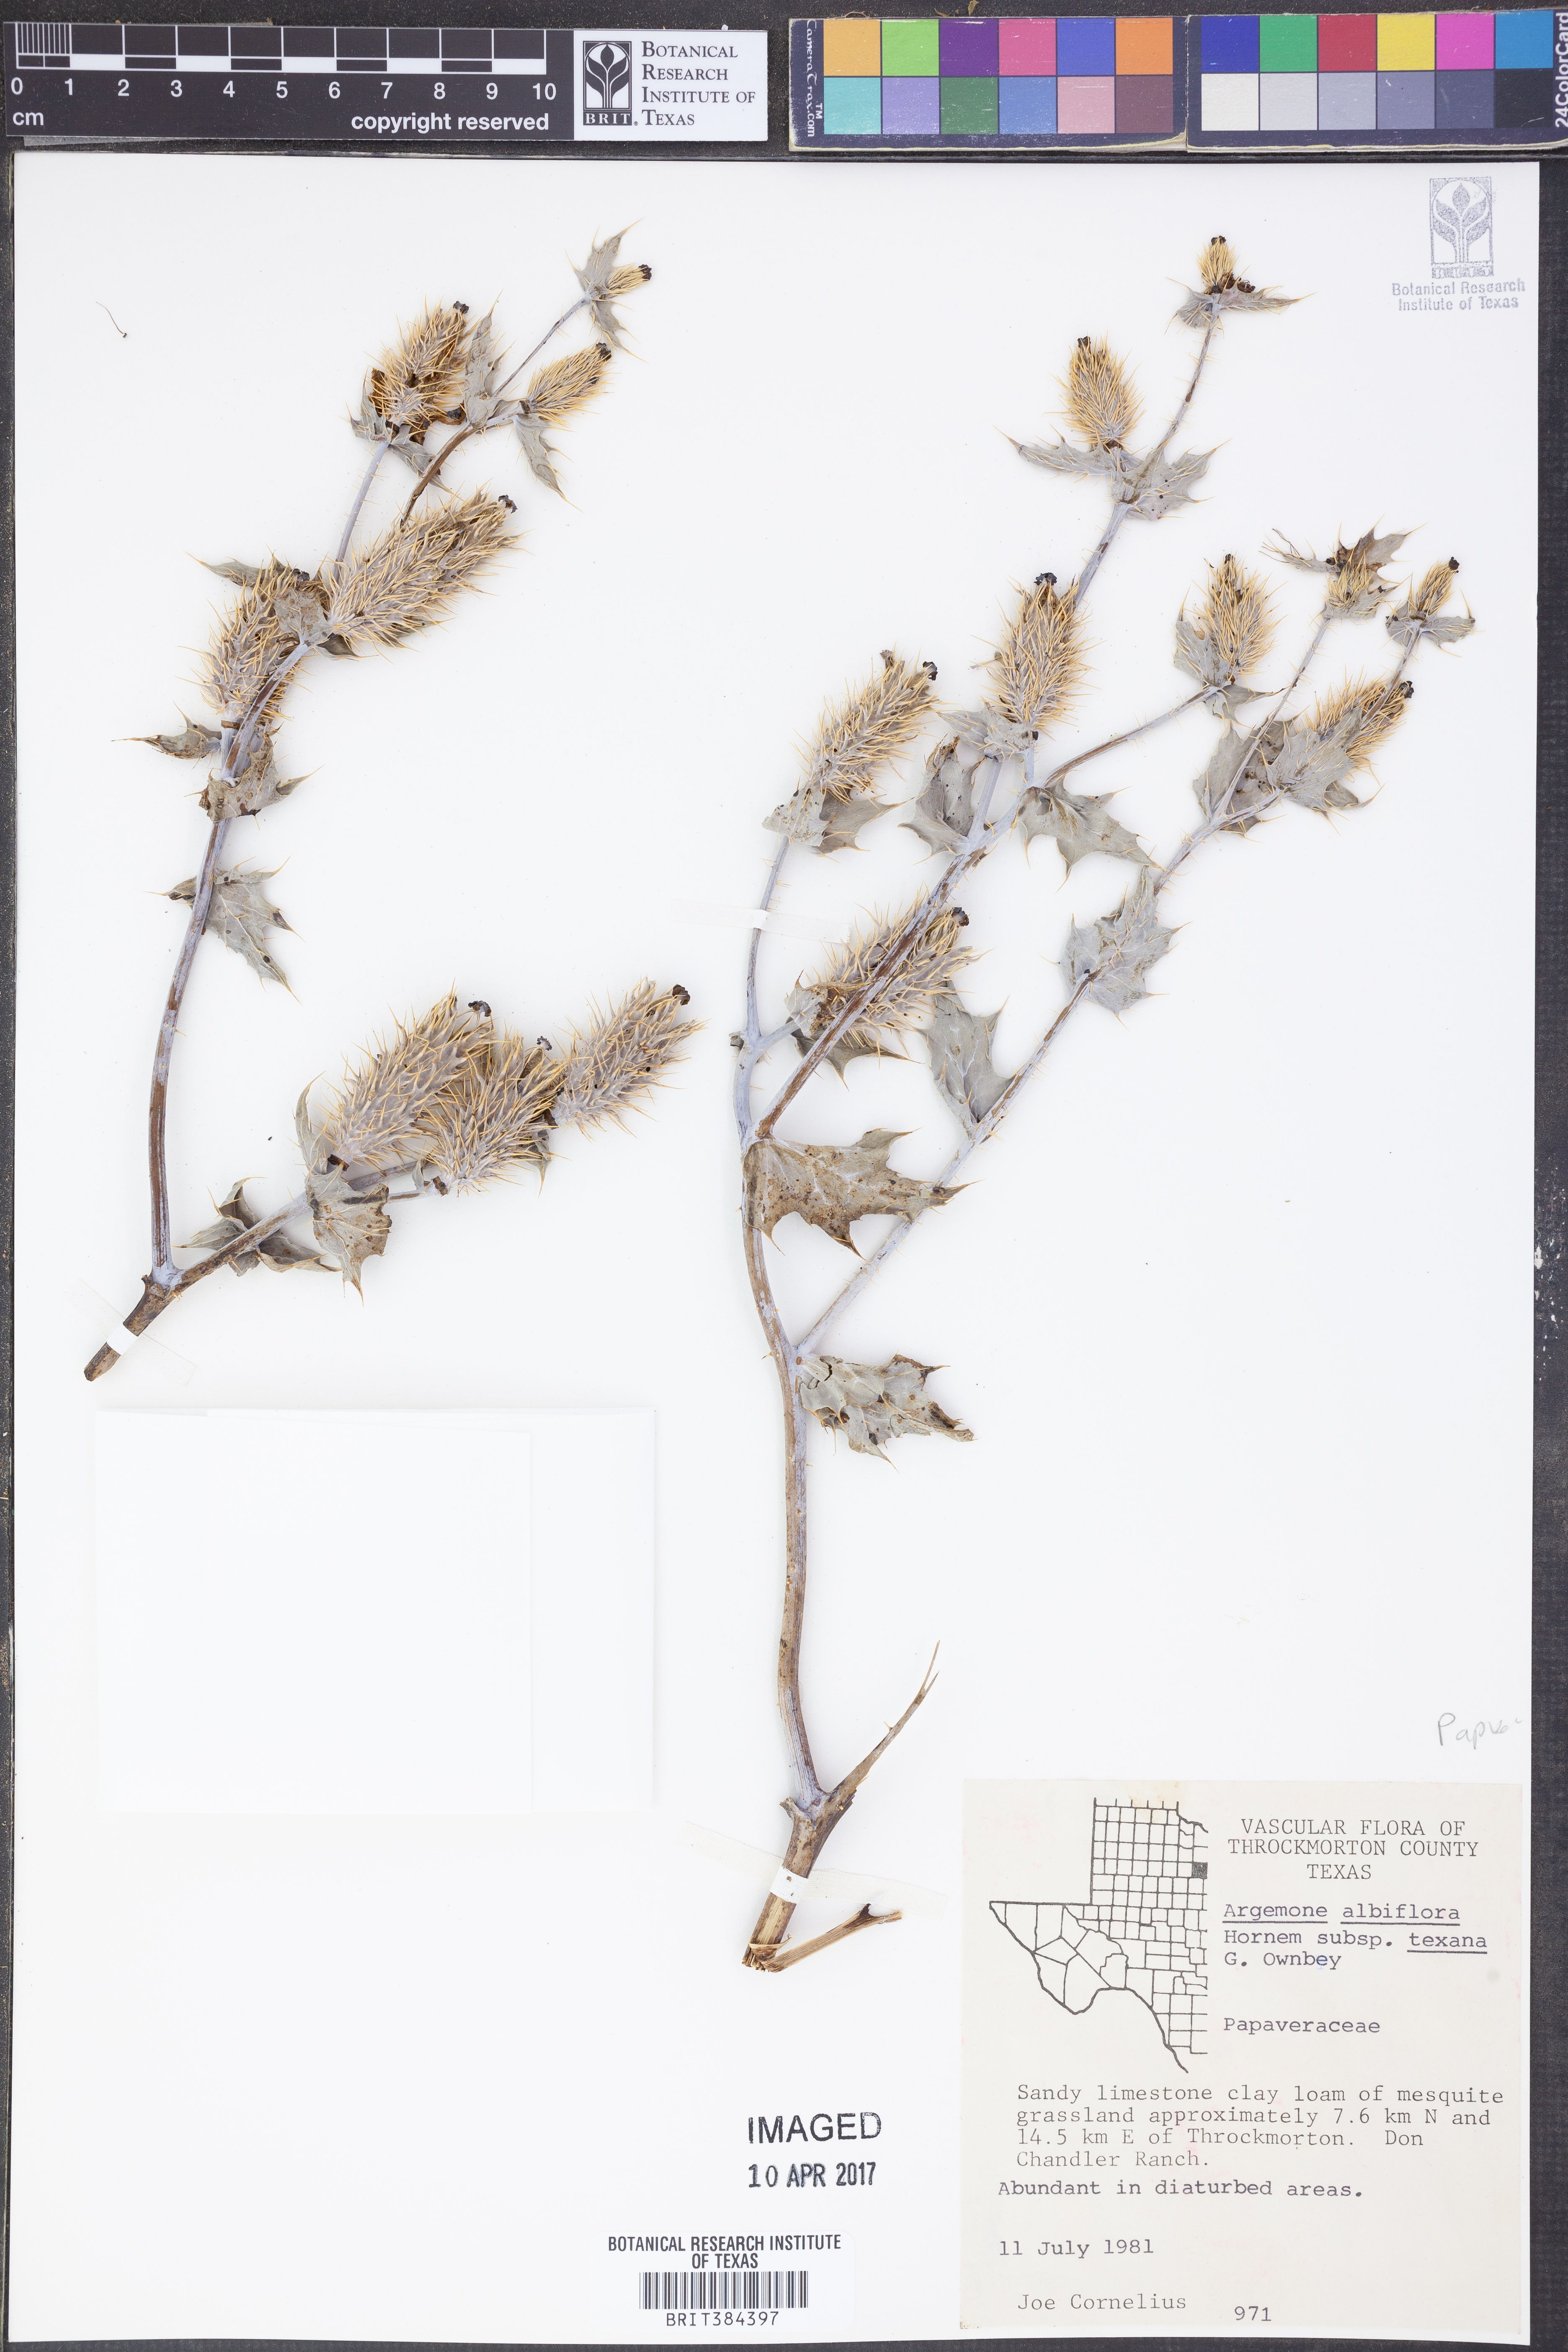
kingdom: Plantae
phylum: Tracheophyta
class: Magnoliopsida
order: Ranunculales
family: Papaveraceae
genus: Argemone
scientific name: Argemone albiflora
